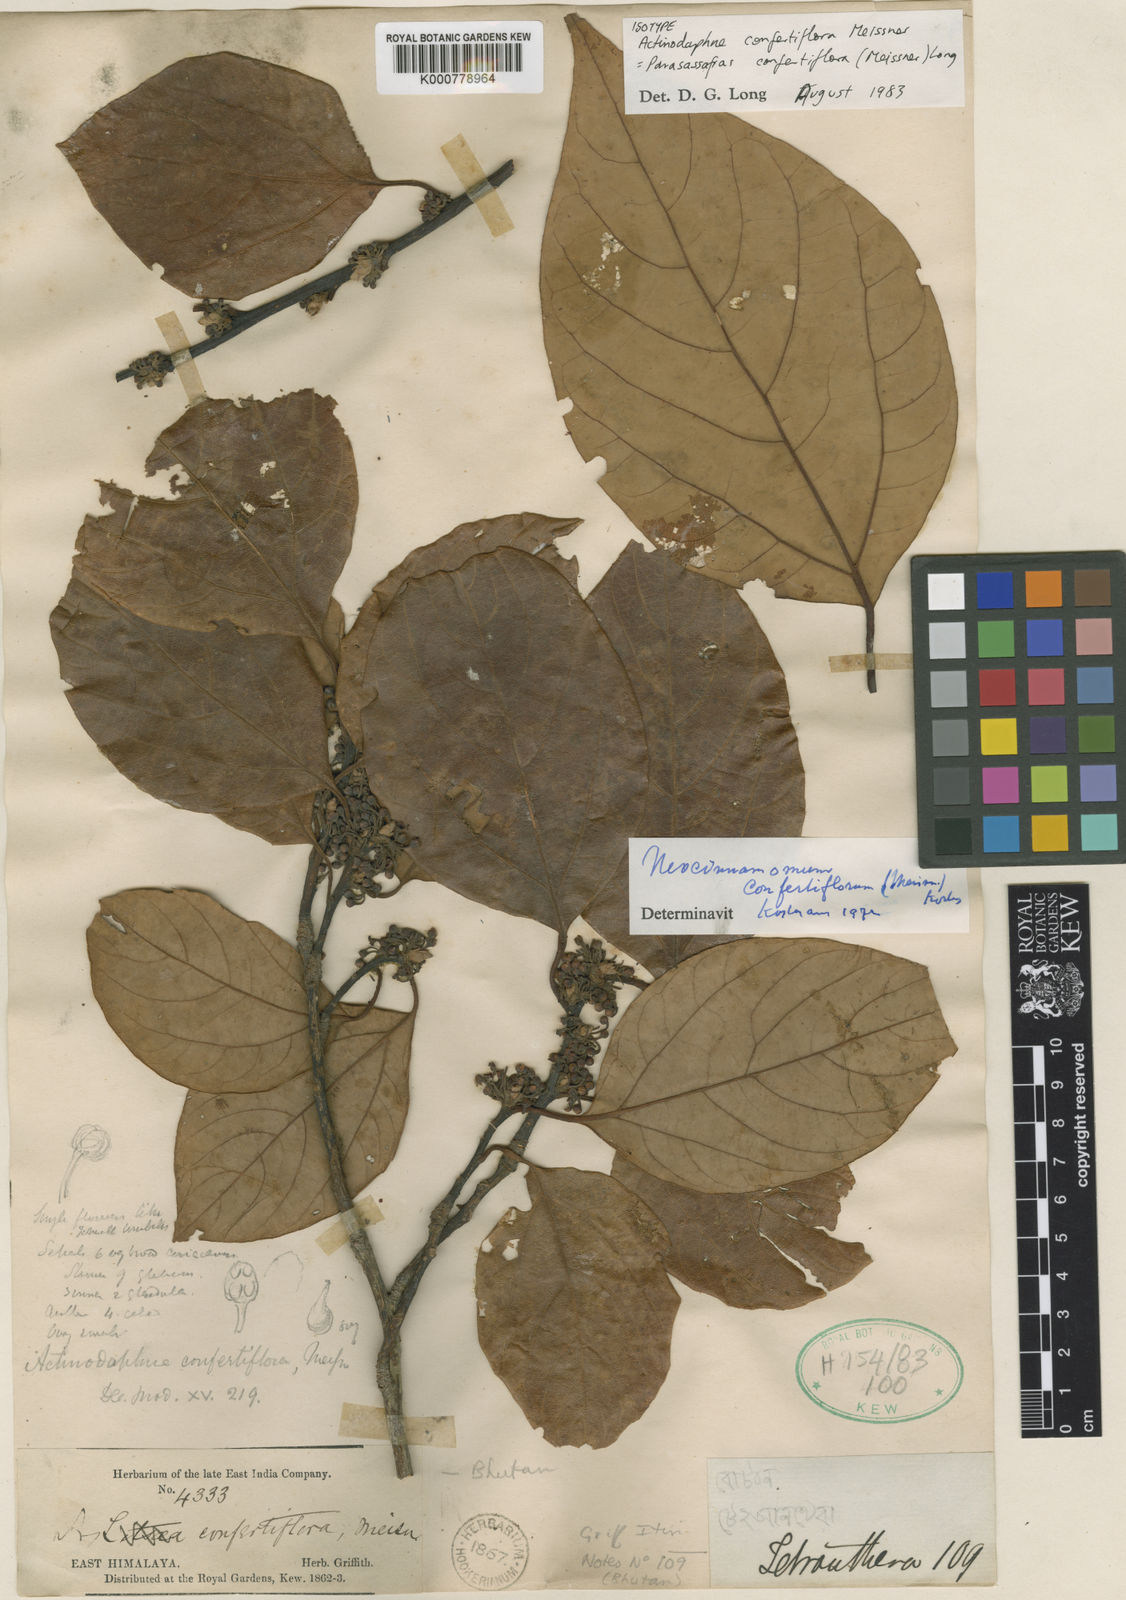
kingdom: Plantae
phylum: Tracheophyta
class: Magnoliopsida
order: Laurales
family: Lauraceae
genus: Parasassafras
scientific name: Parasassafras confertiflora
